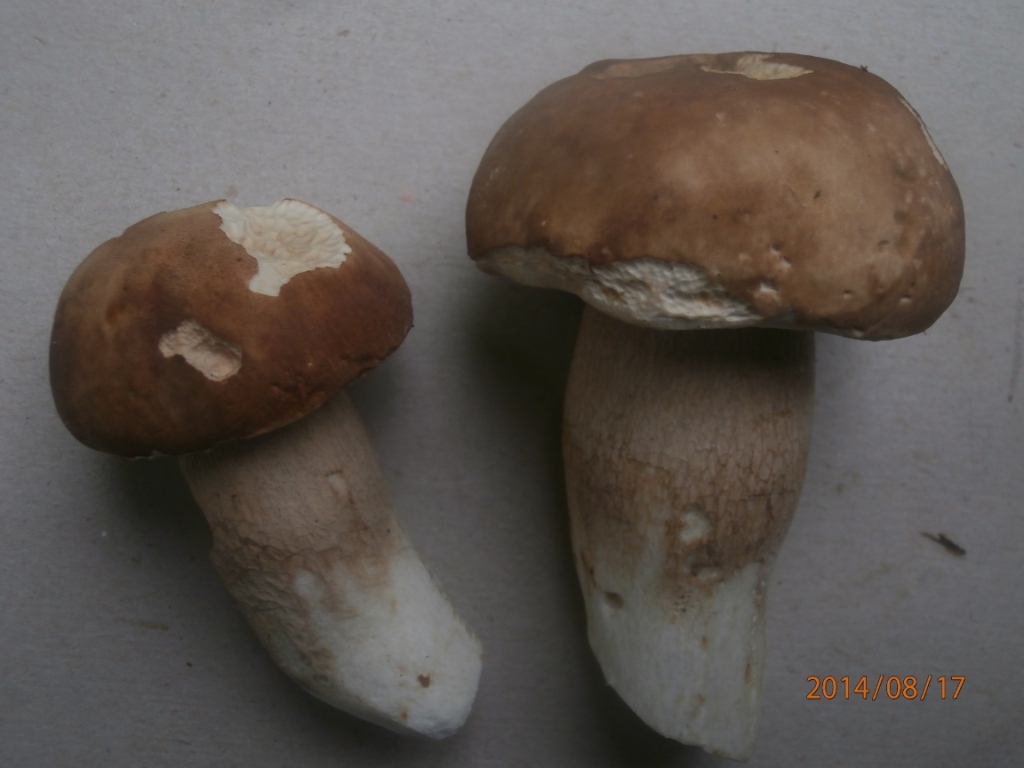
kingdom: Fungi
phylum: Basidiomycota
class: Agaricomycetes
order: Boletales
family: Boletaceae
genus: Boletus
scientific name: Boletus reticulatus
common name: sommer-rørhat
